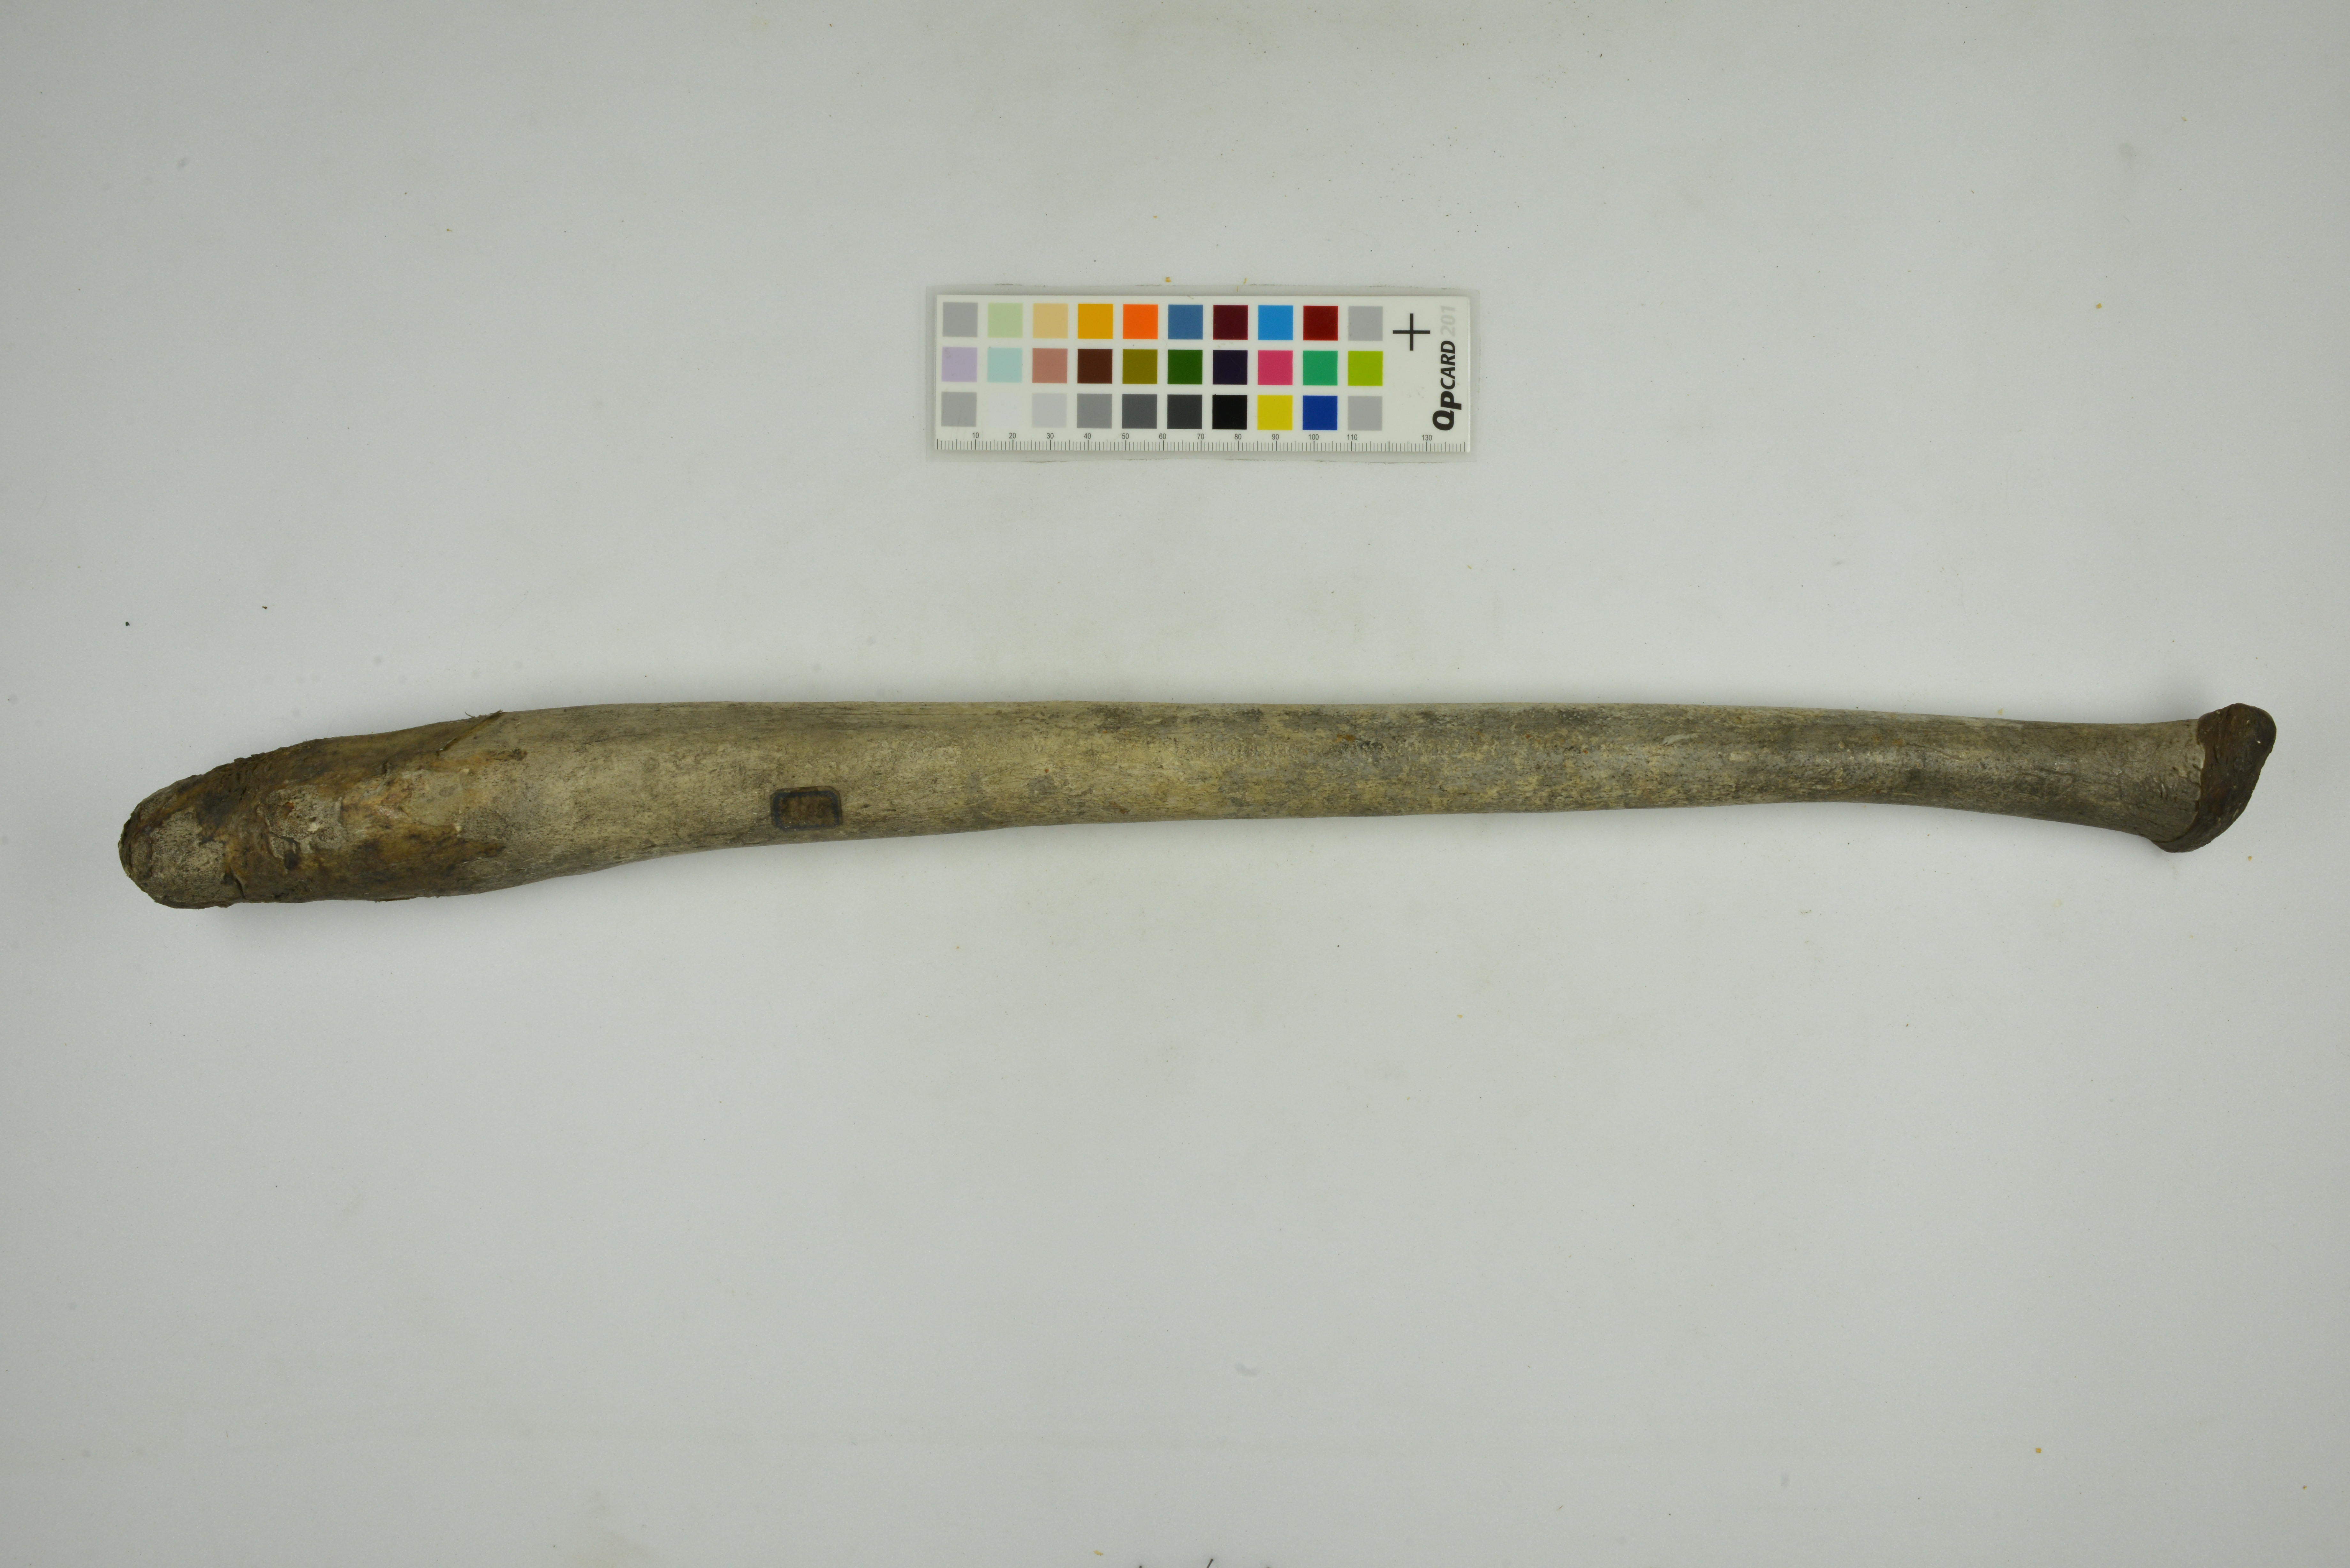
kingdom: Animalia
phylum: Chordata
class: Mammalia
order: Carnivora
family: Odobenidae
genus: Odobenus
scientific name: Odobenus rosmarus
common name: Walrus
